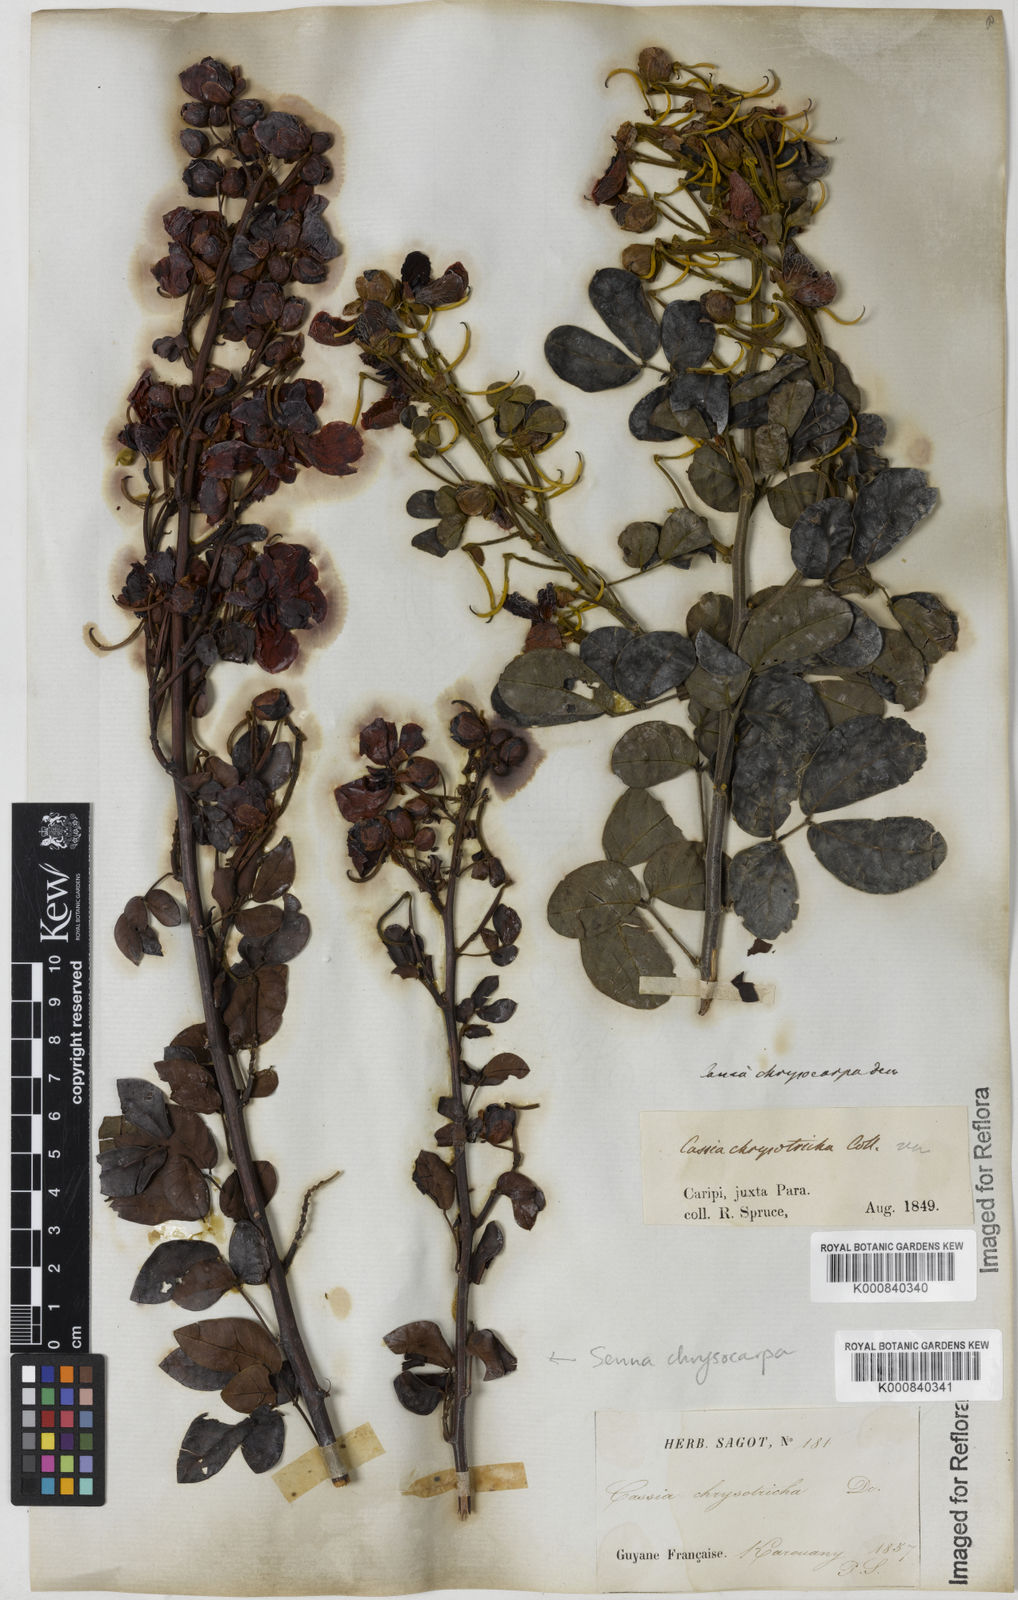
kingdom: Plantae
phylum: Tracheophyta
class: Magnoliopsida
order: Fabales
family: Fabaceae
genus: Senna
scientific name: Senna chrysocarpa
